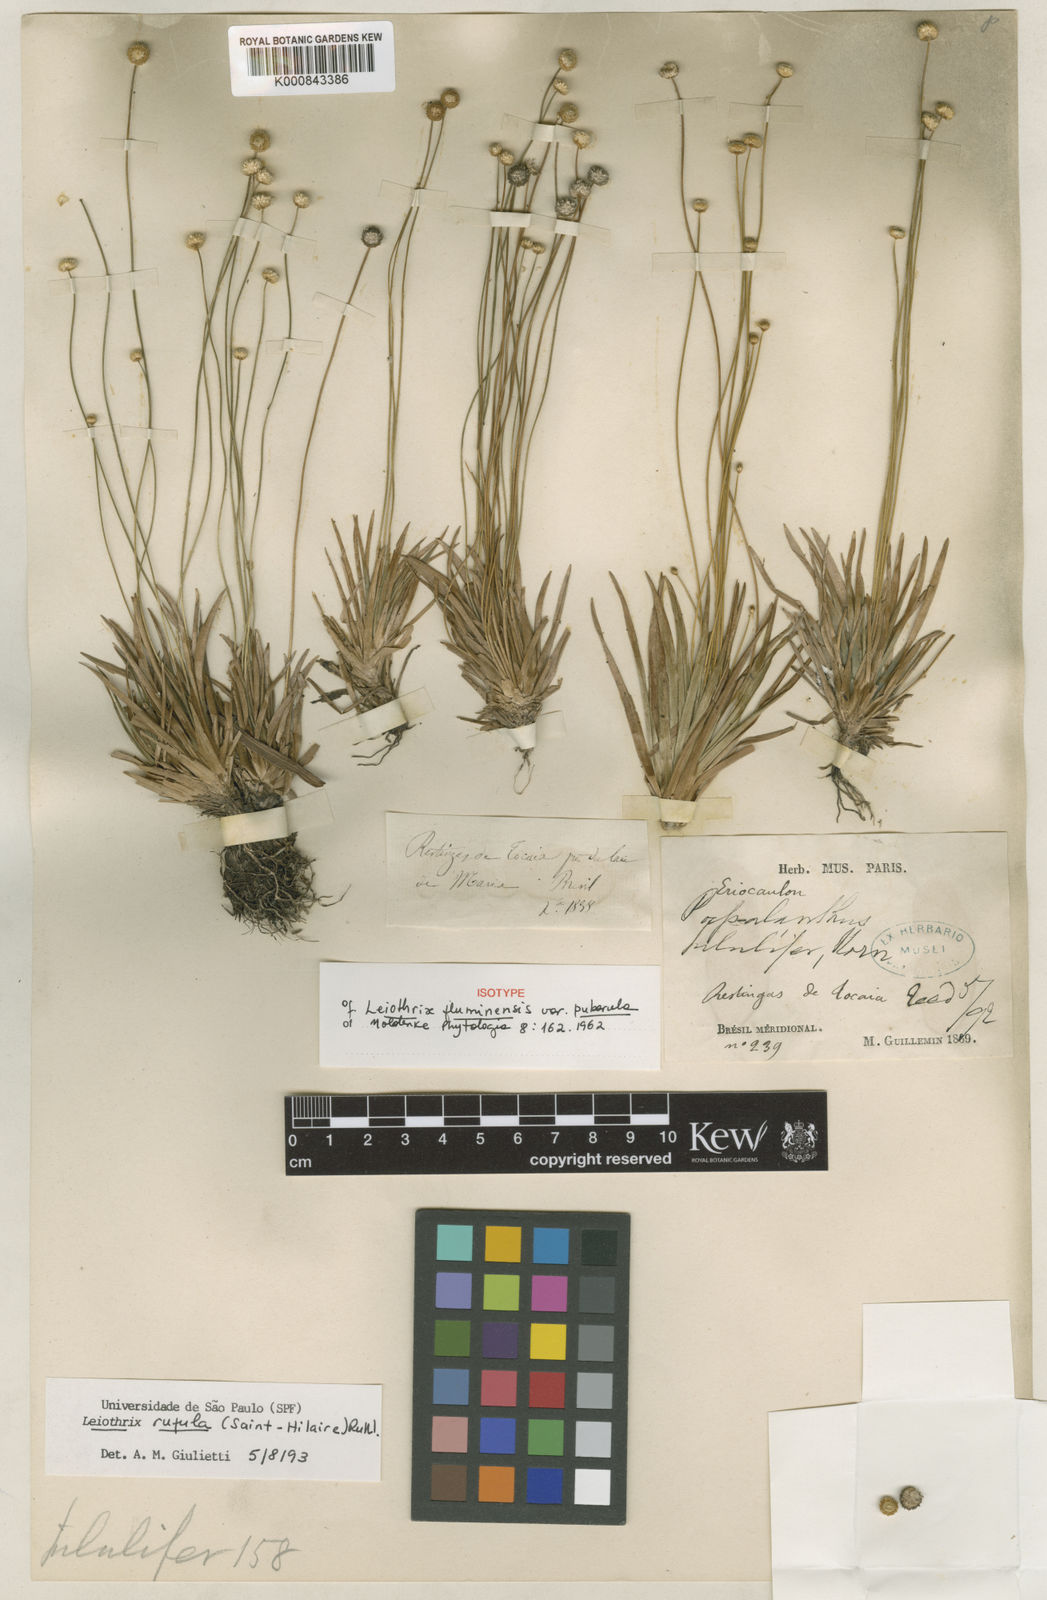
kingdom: Plantae
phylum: Tracheophyta
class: Liliopsida
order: Poales
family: Eriocaulaceae
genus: Leiothrix
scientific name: Leiothrix rufula
